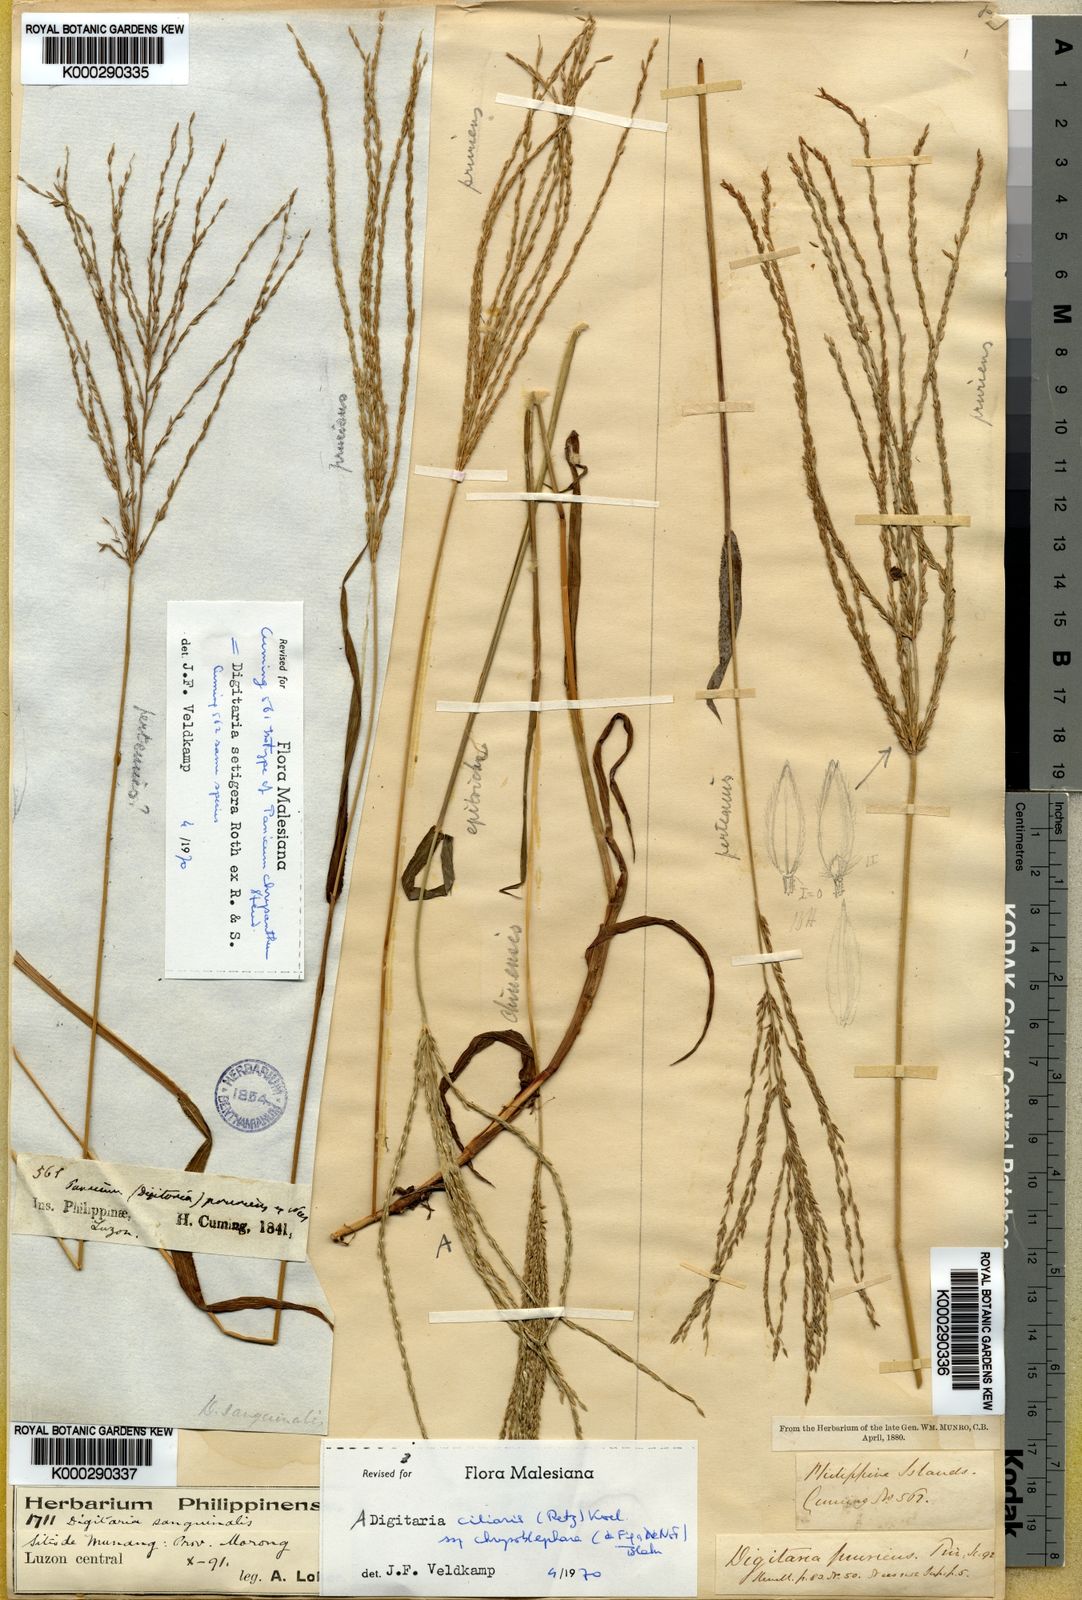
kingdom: Plantae
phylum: Tracheophyta
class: Liliopsida
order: Poales
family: Poaceae
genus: Digitaria
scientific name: Digitaria
